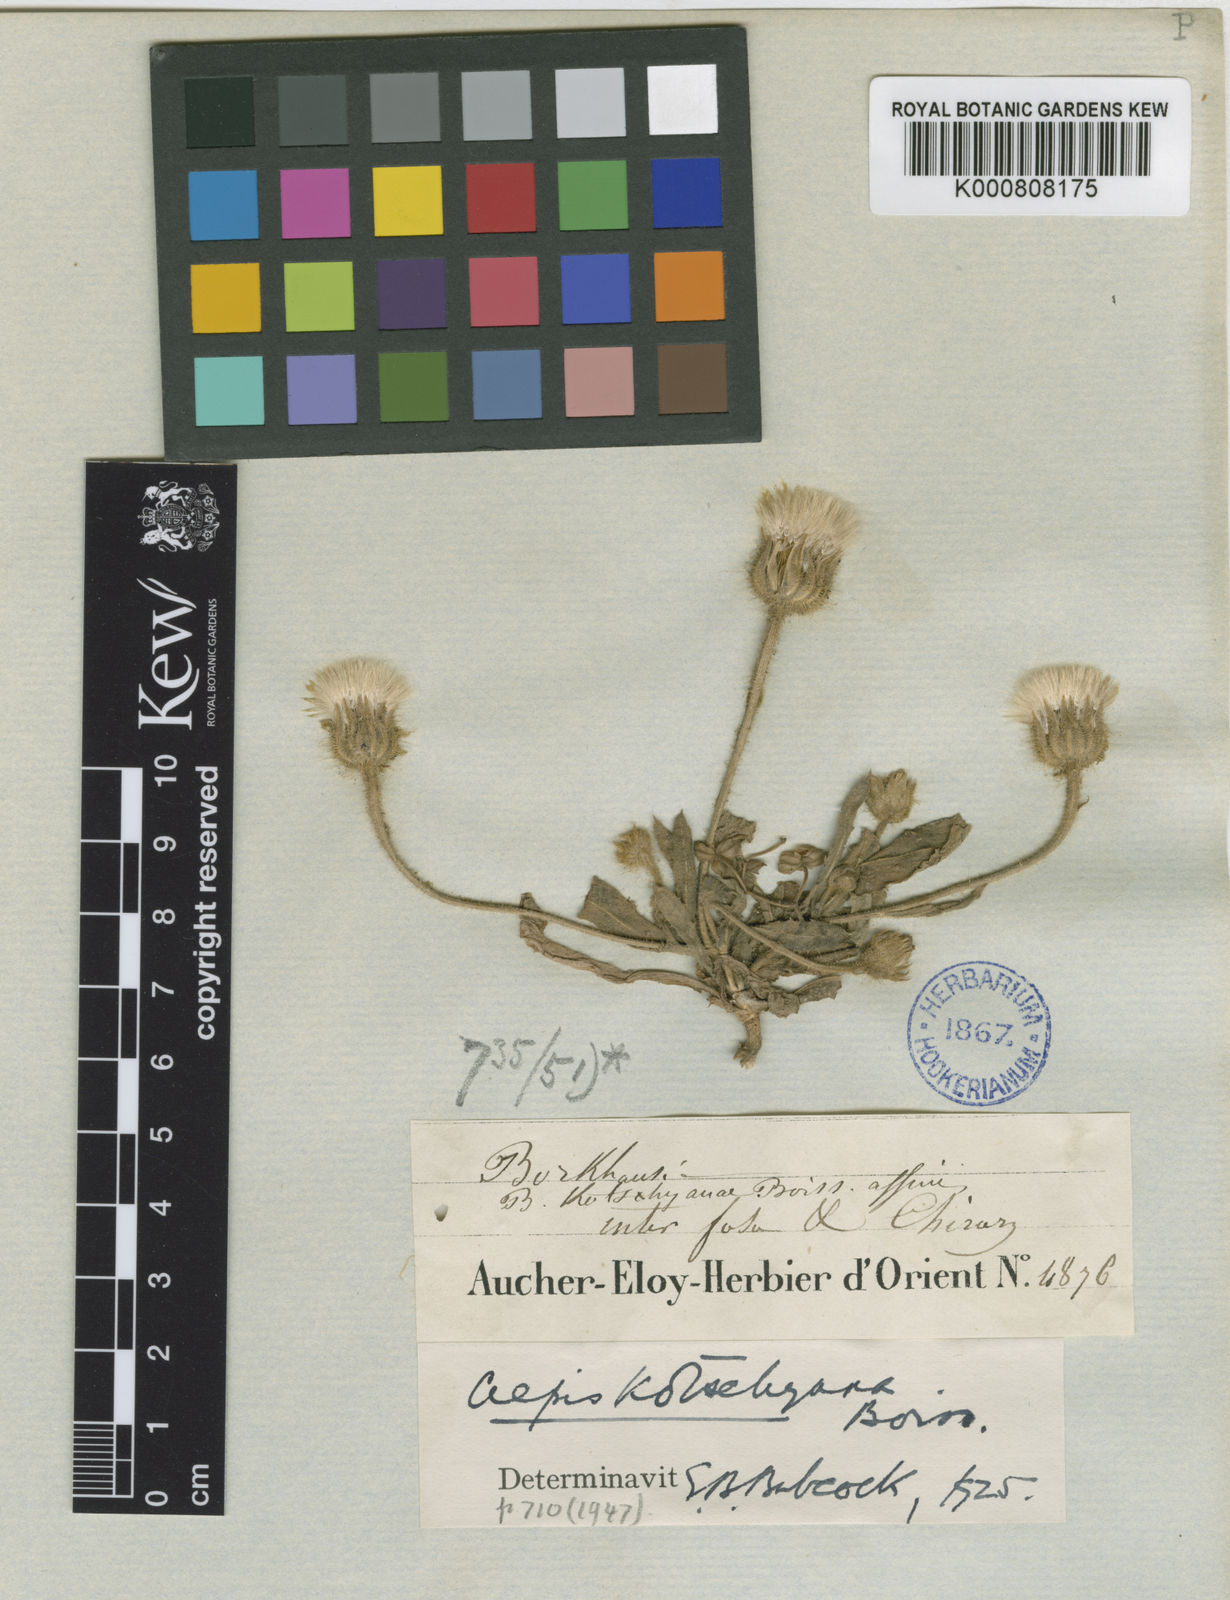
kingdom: Plantae
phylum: Tracheophyta
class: Magnoliopsida
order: Asterales
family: Asteraceae
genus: Crepis
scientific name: Crepis kotschyana
